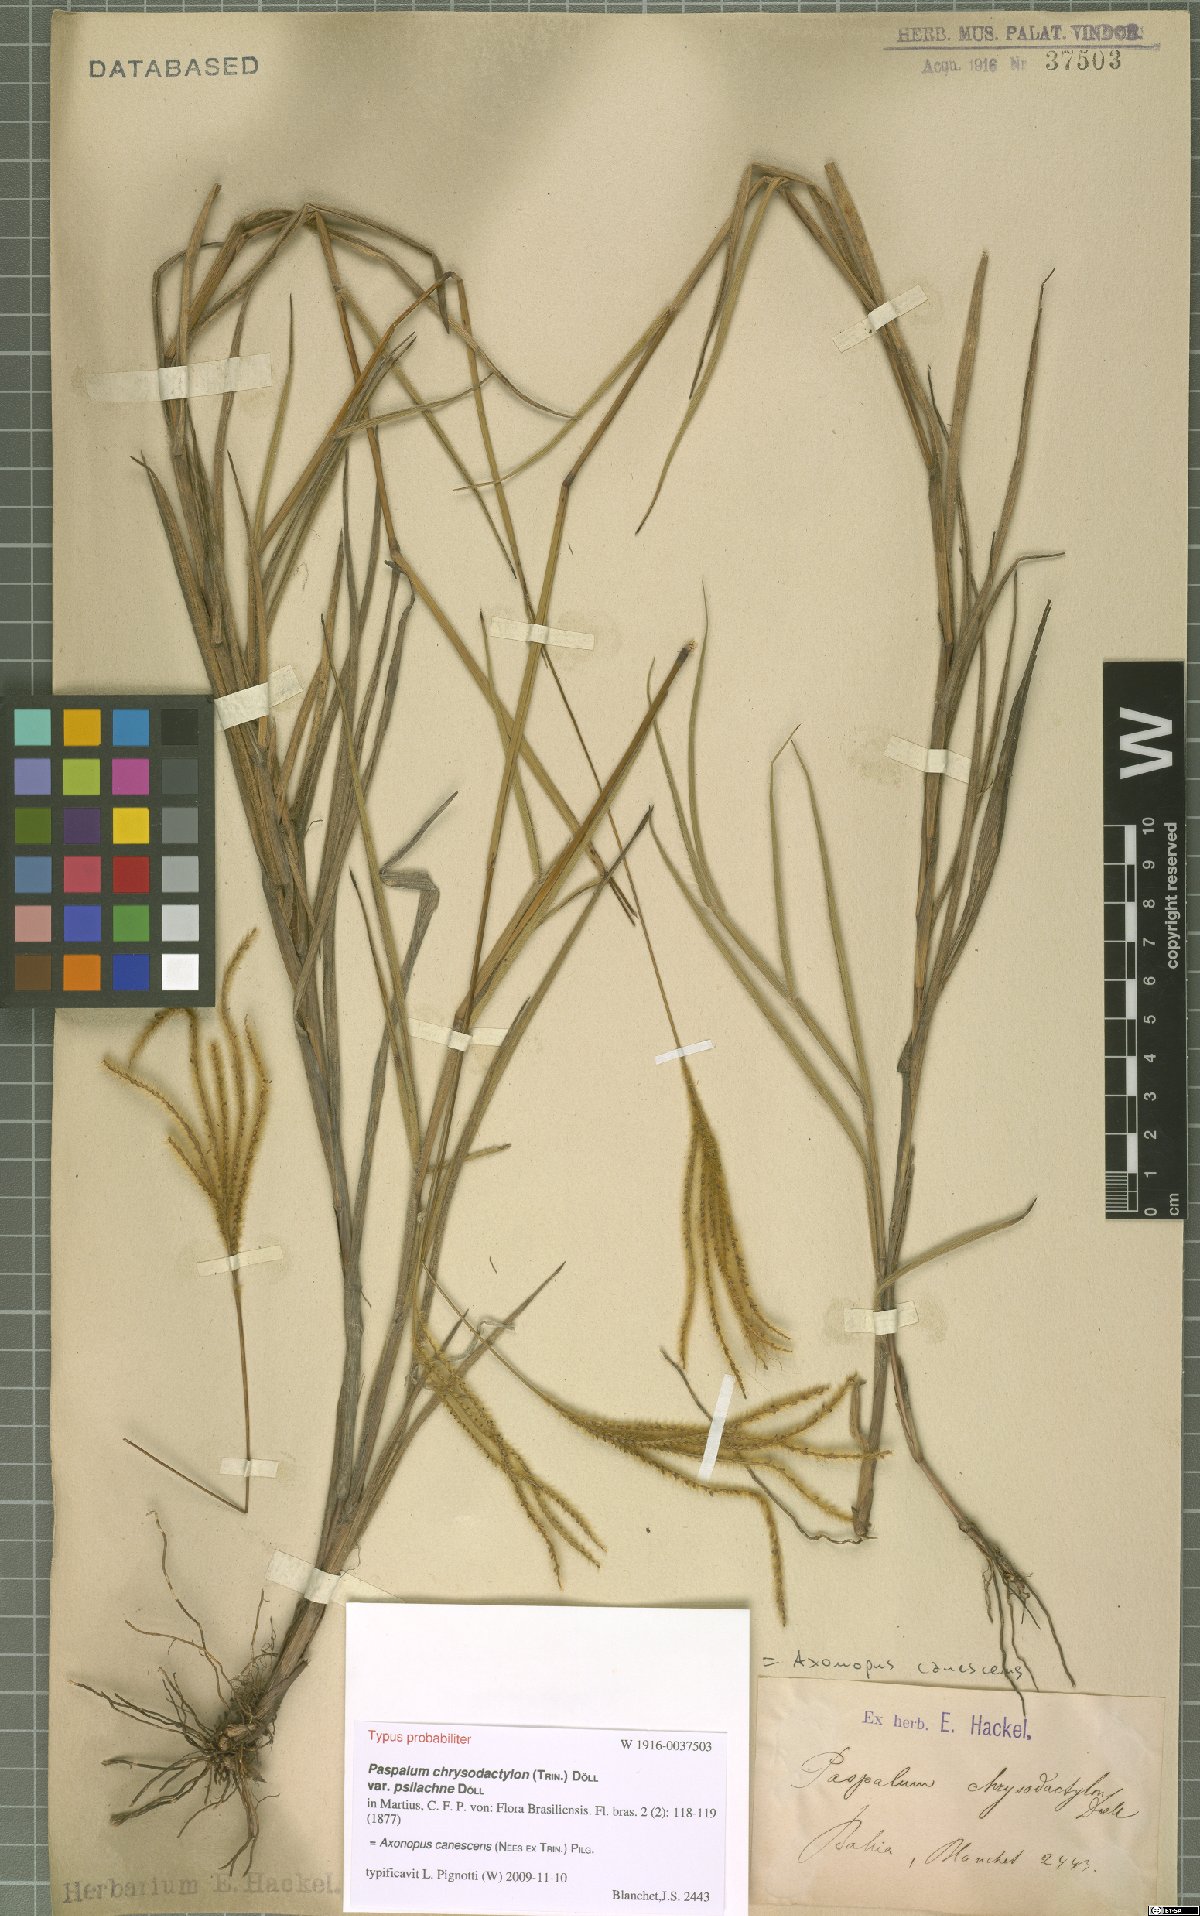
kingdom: Plantae
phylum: Tracheophyta
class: Liliopsida
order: Poales
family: Poaceae
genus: Axonopus
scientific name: Axonopus aureus
